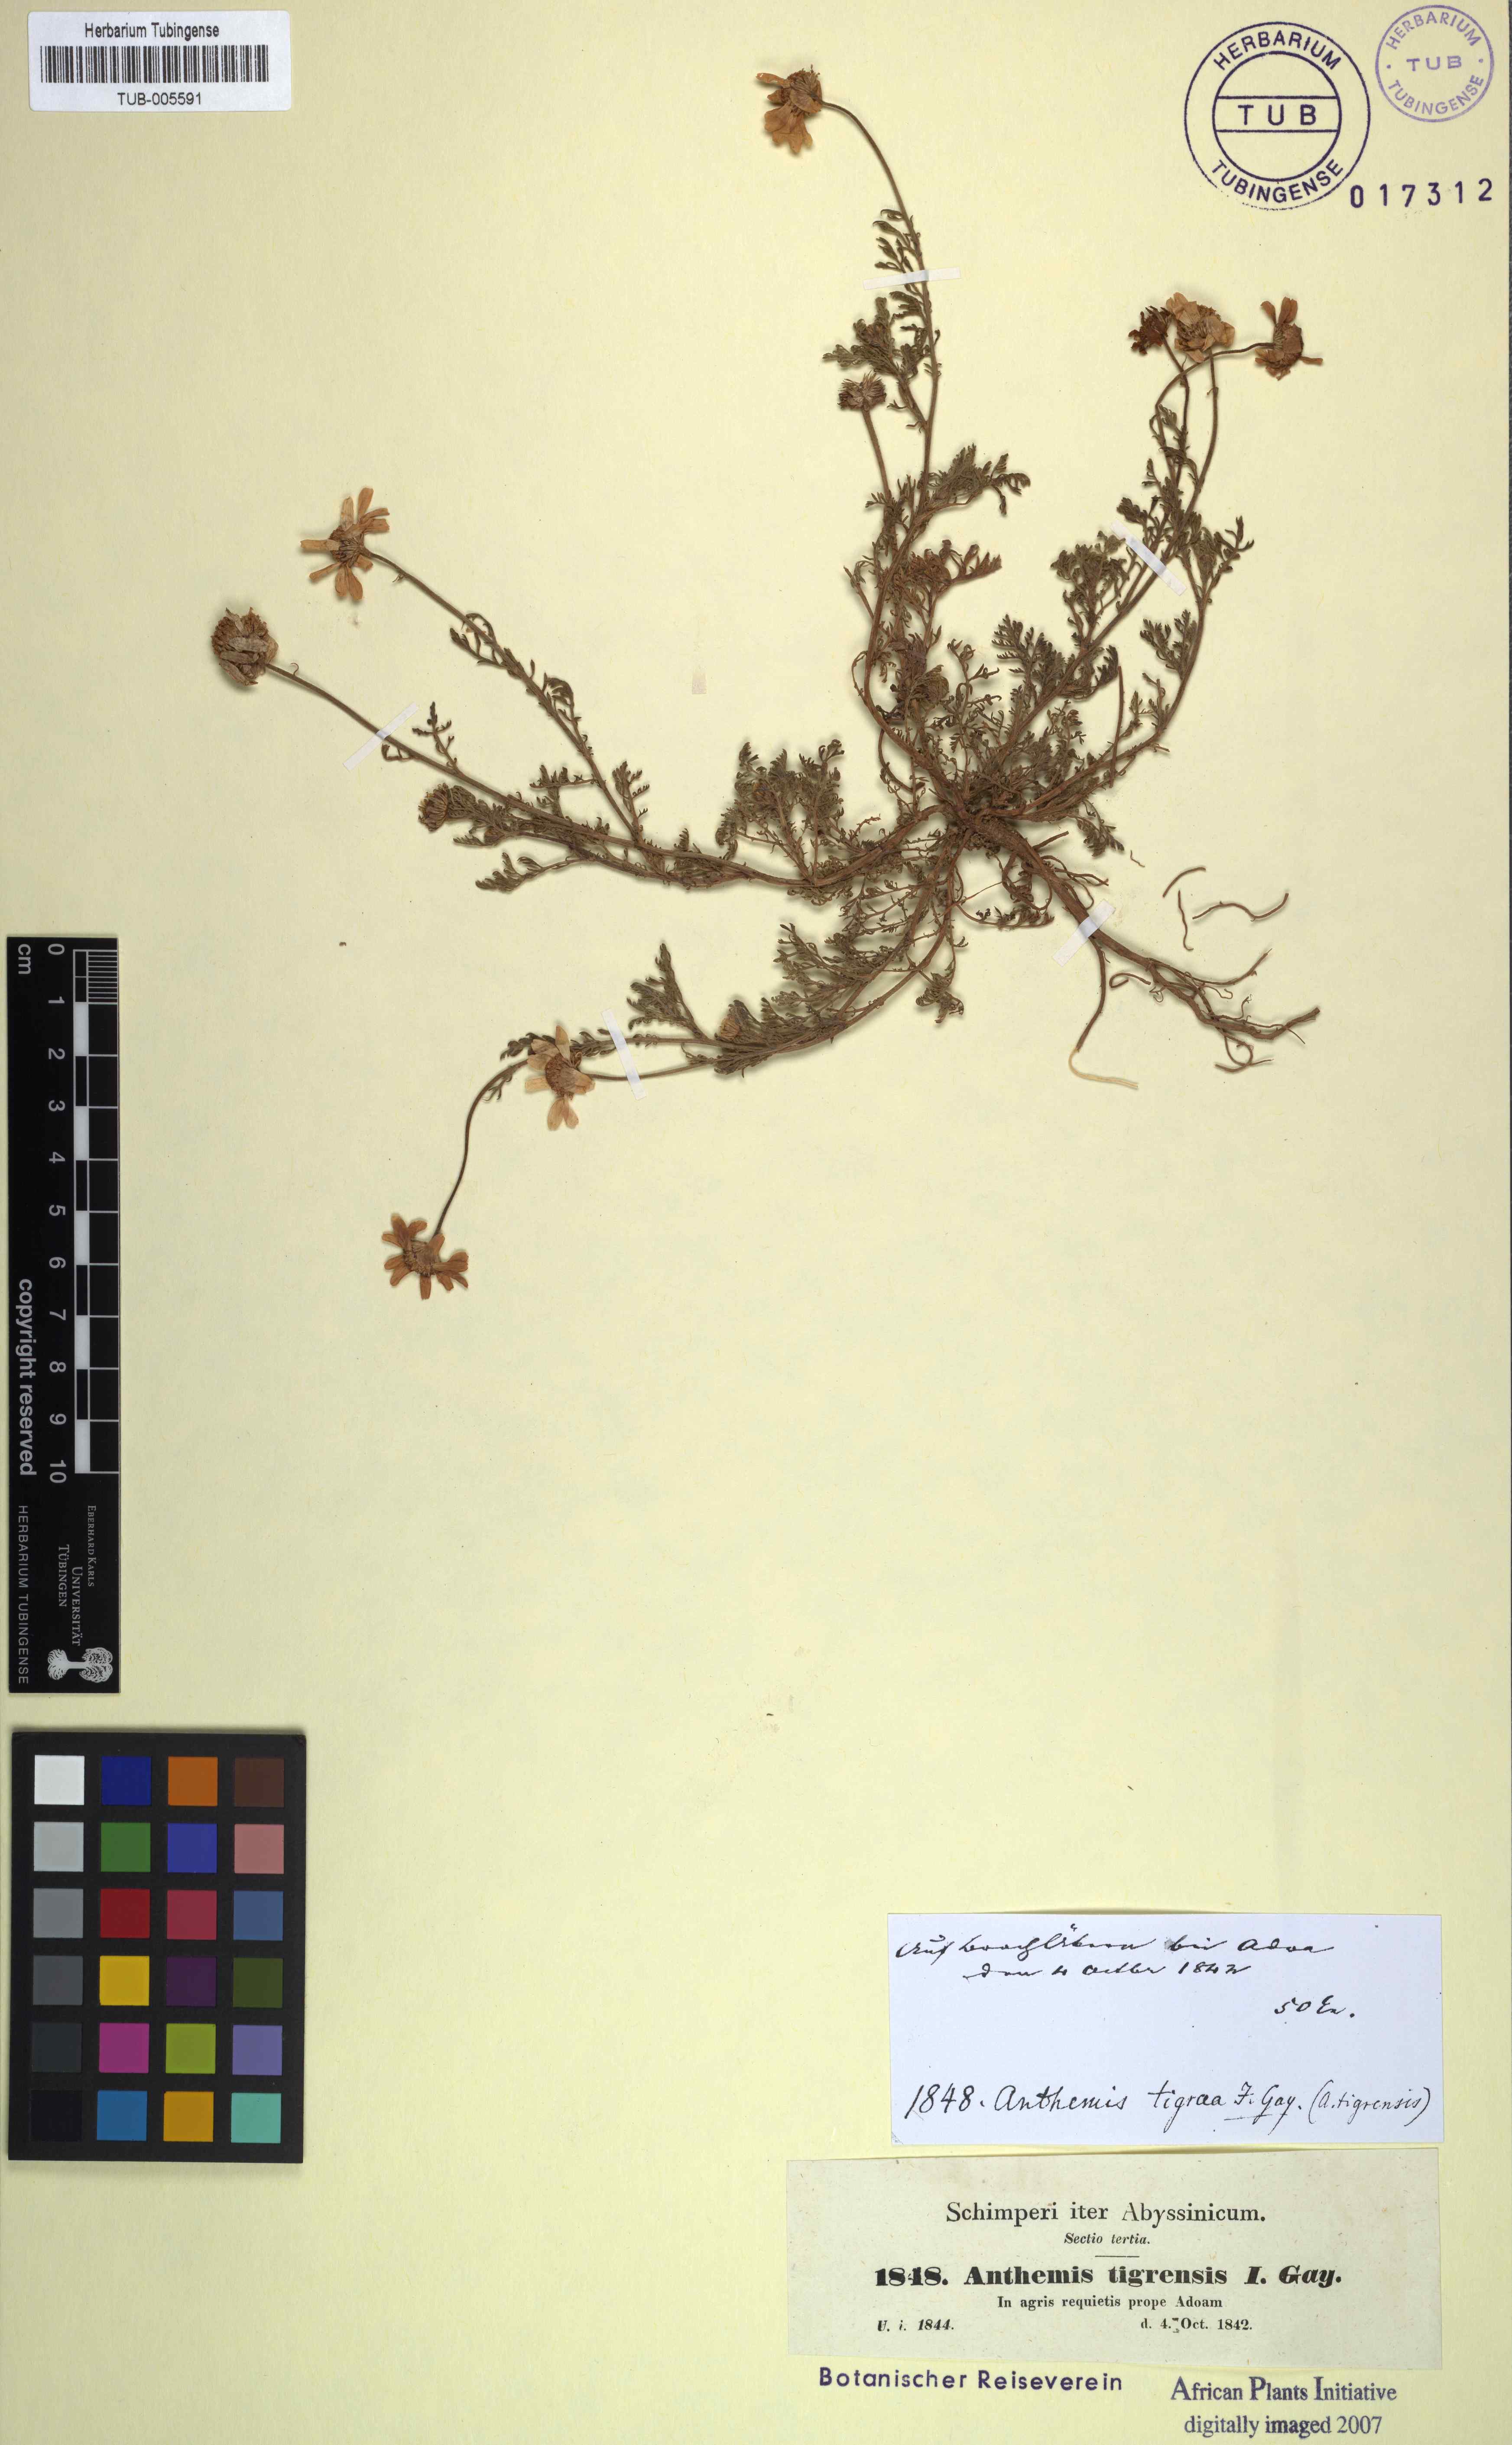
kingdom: Plantae
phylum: Tracheophyta
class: Magnoliopsida
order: Asterales
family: Asteraceae
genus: Anthemis
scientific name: Anthemis tigreensis
